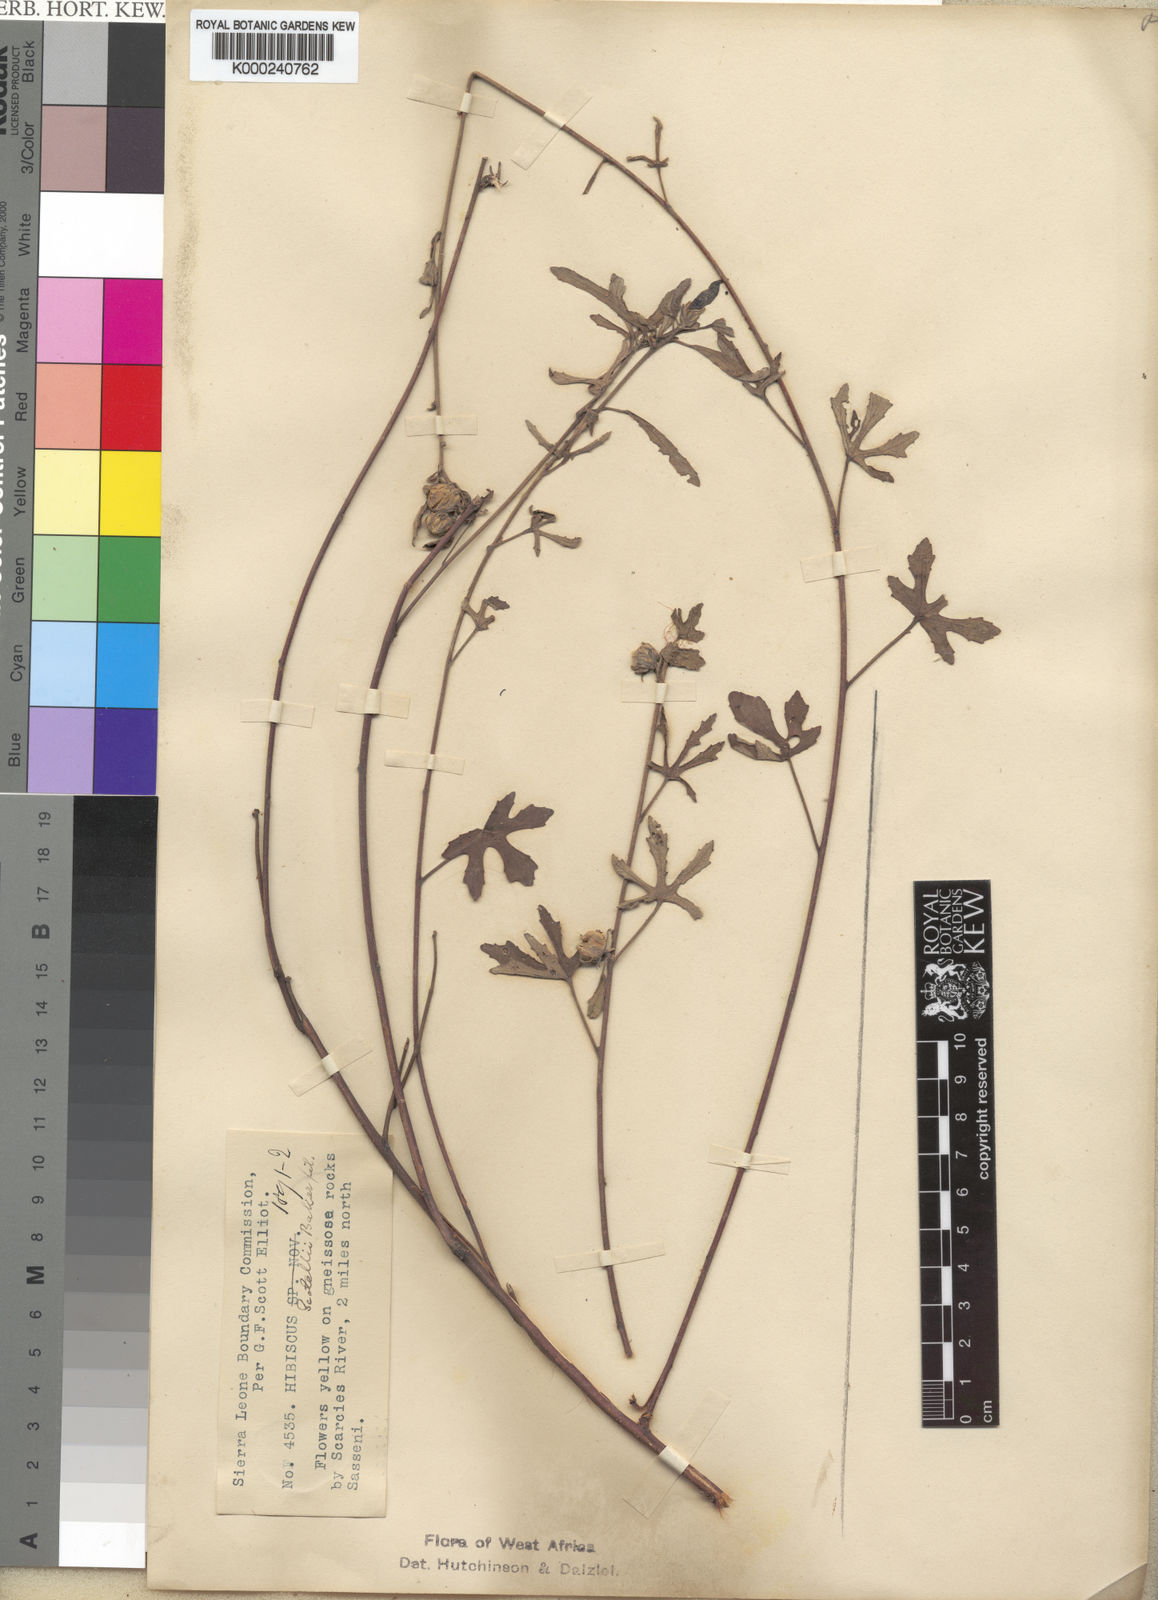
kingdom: Plantae
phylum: Tracheophyta
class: Magnoliopsida
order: Malvales
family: Malvaceae
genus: Hibiscus
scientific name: Hibiscus scotellii
